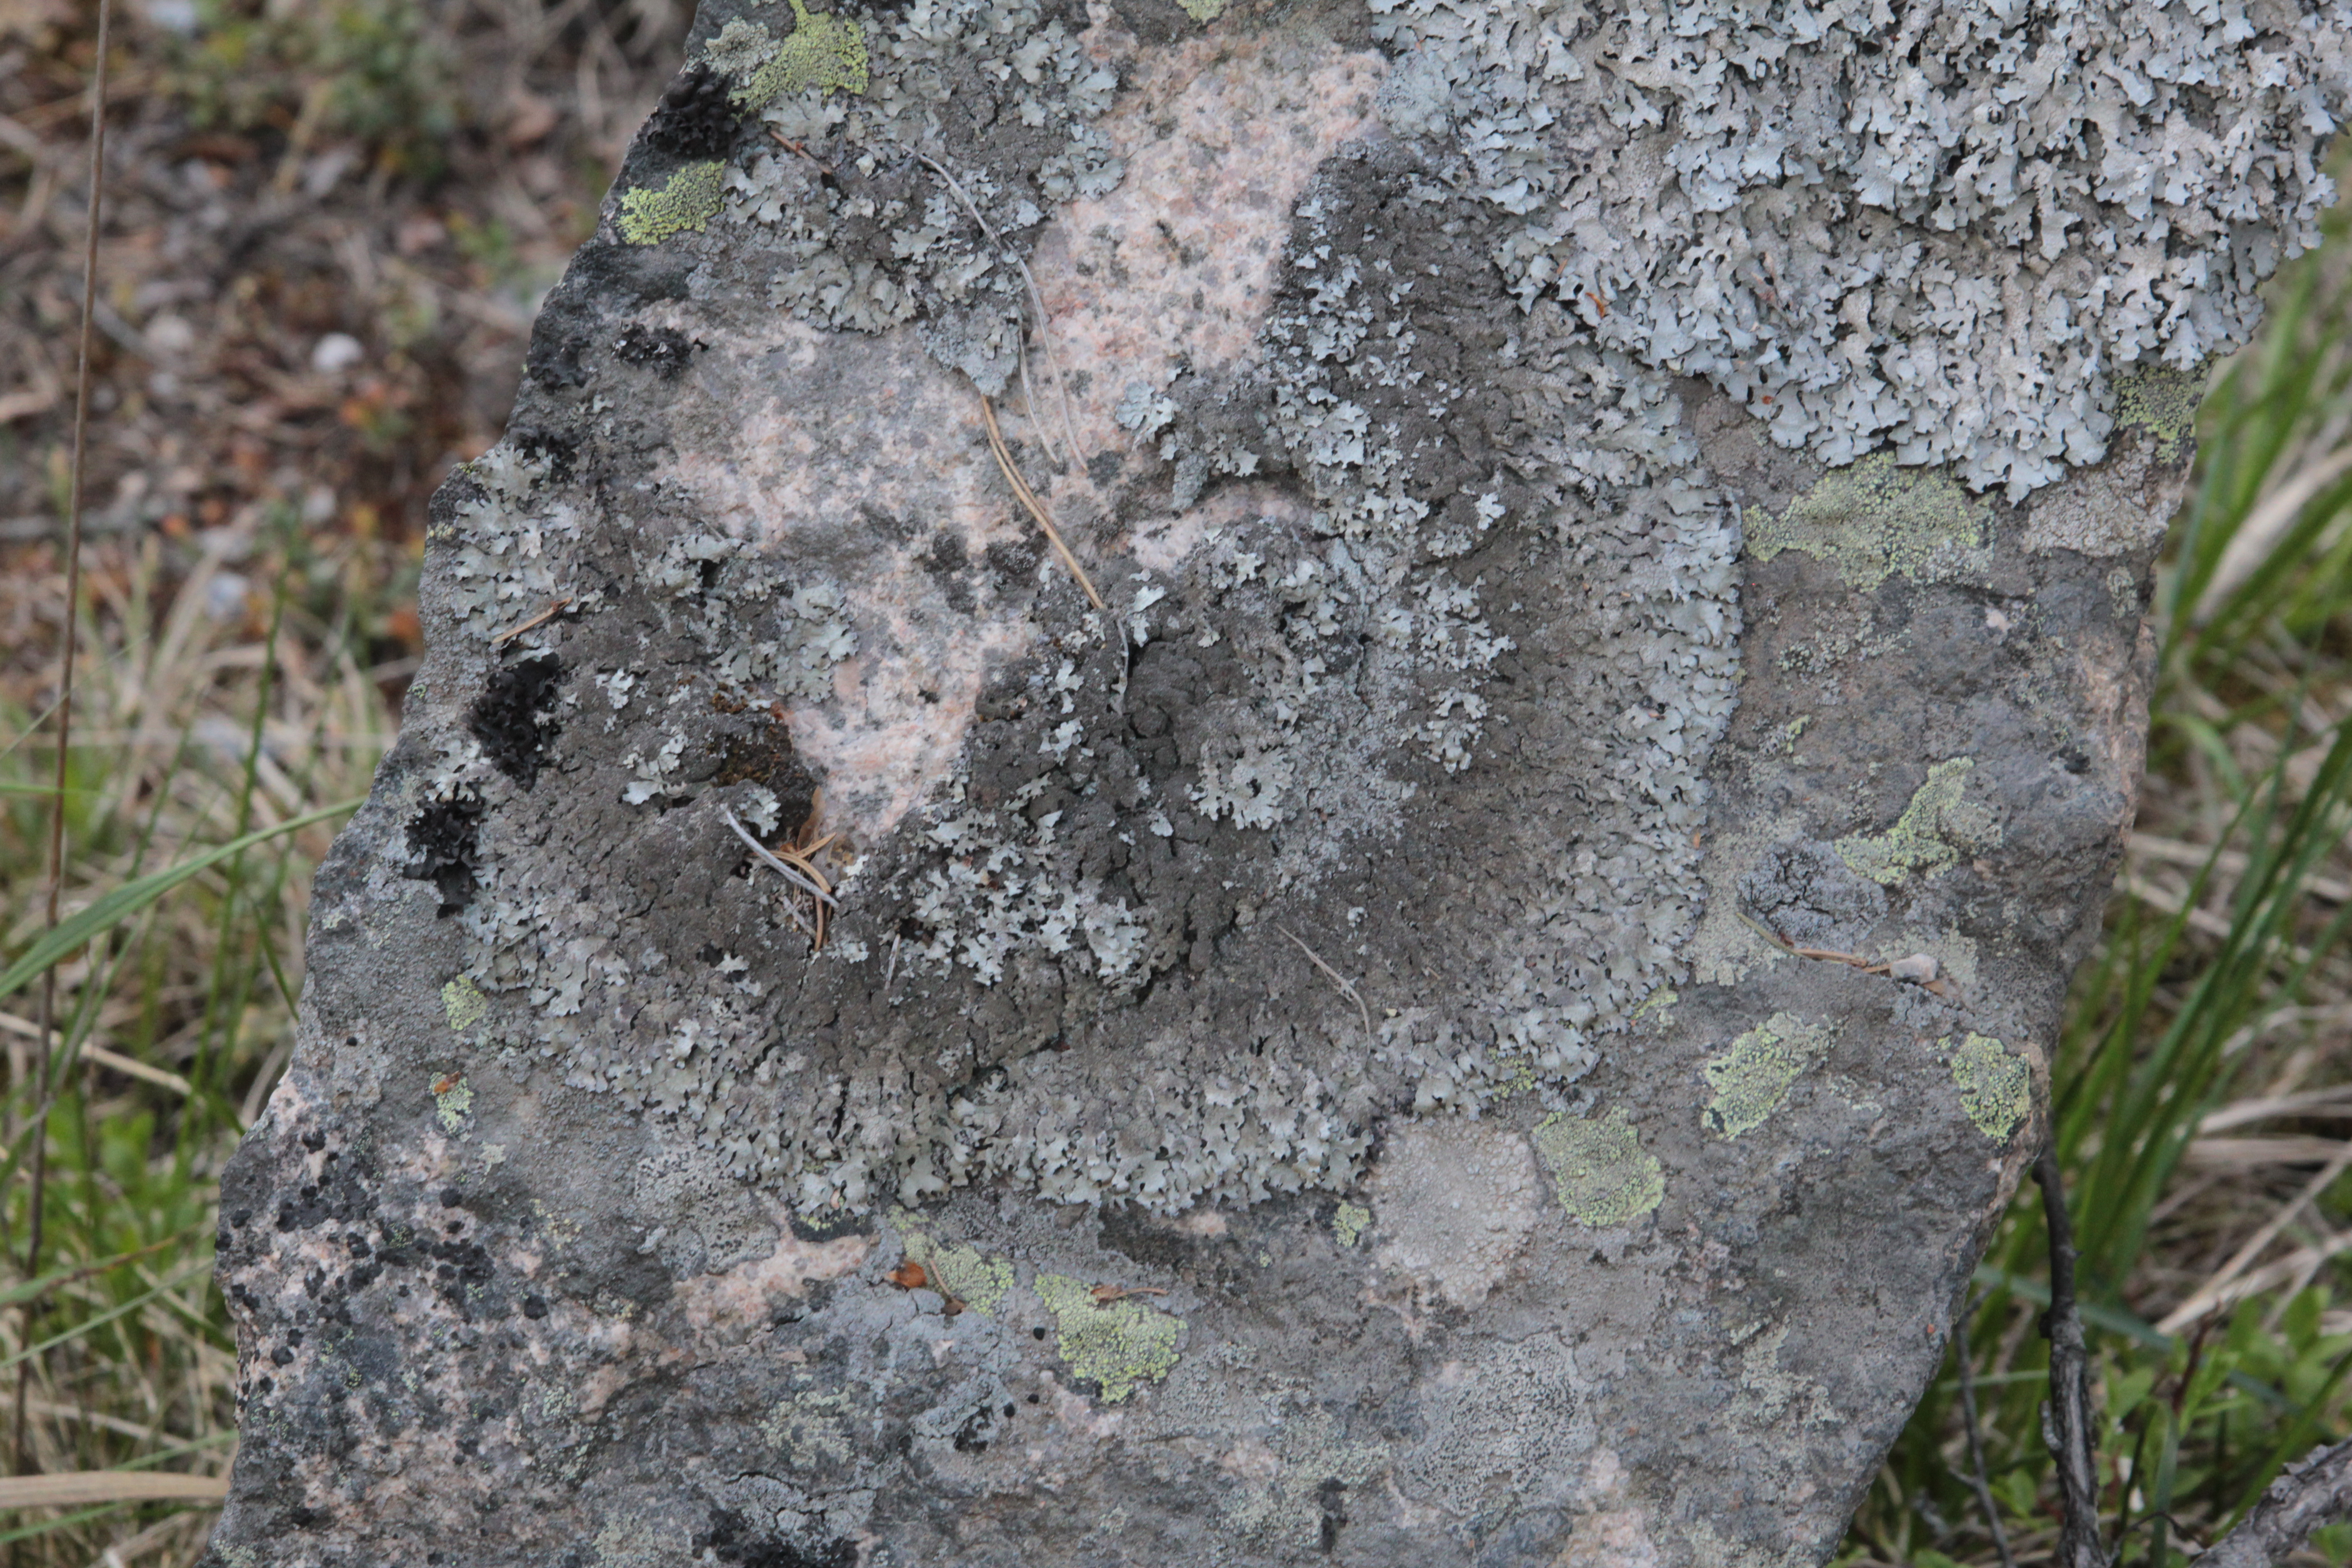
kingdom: Fungi
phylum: Ascomycota
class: Lecanoromycetes
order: Lecanorales
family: Parmeliaceae
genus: Arctoparmelia
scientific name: Arctoparmelia centrifuga
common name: Concentric ring lichen
